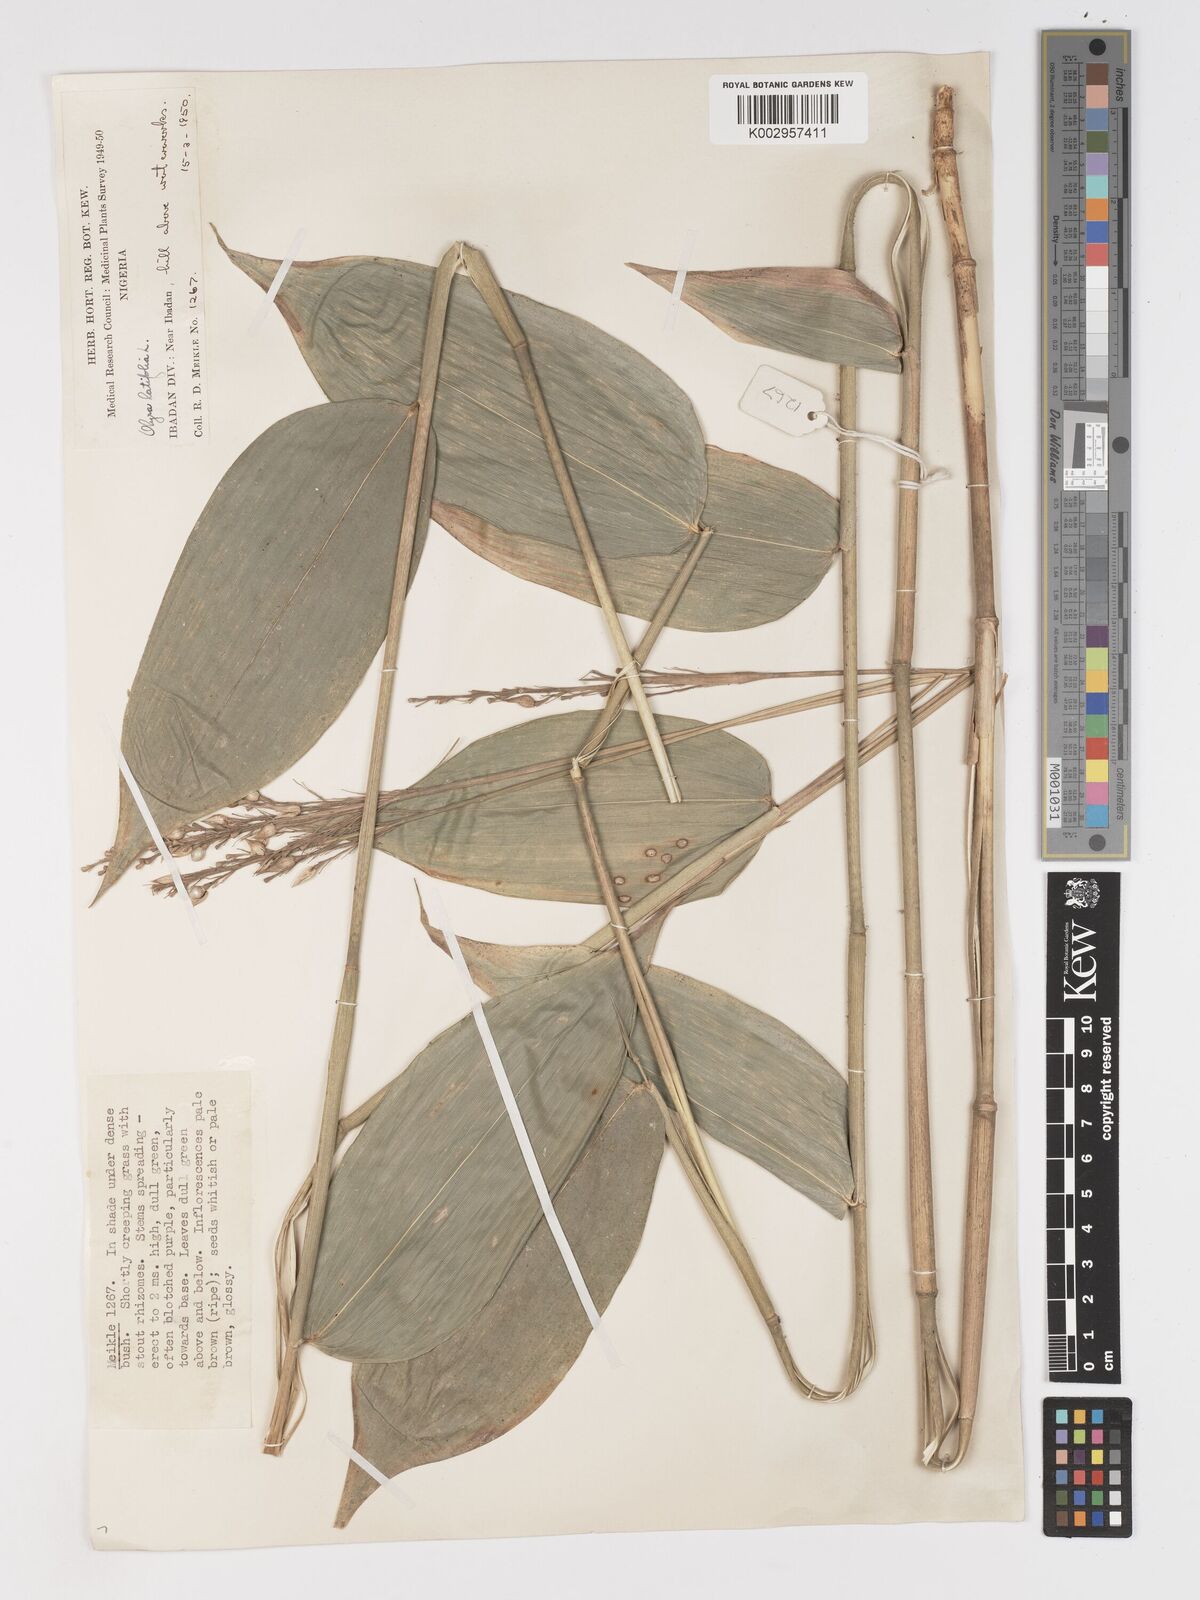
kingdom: Plantae
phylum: Tracheophyta
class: Liliopsida
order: Poales
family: Poaceae
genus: Olyra
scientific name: Olyra latifolia
